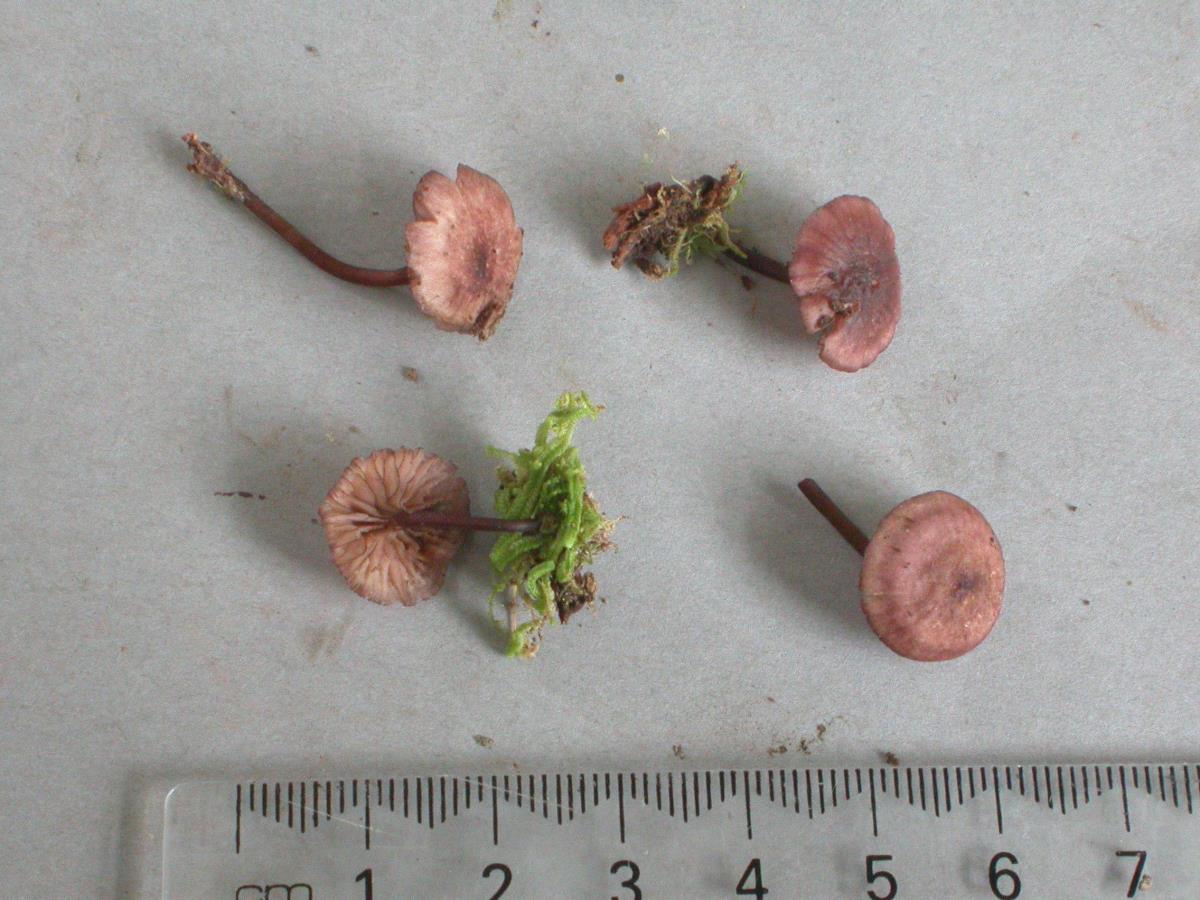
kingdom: Fungi
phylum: Basidiomycota
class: Agaricomycetes
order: Agaricales
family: Mycenaceae
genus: Mycena
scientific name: Mycena lividorubra
